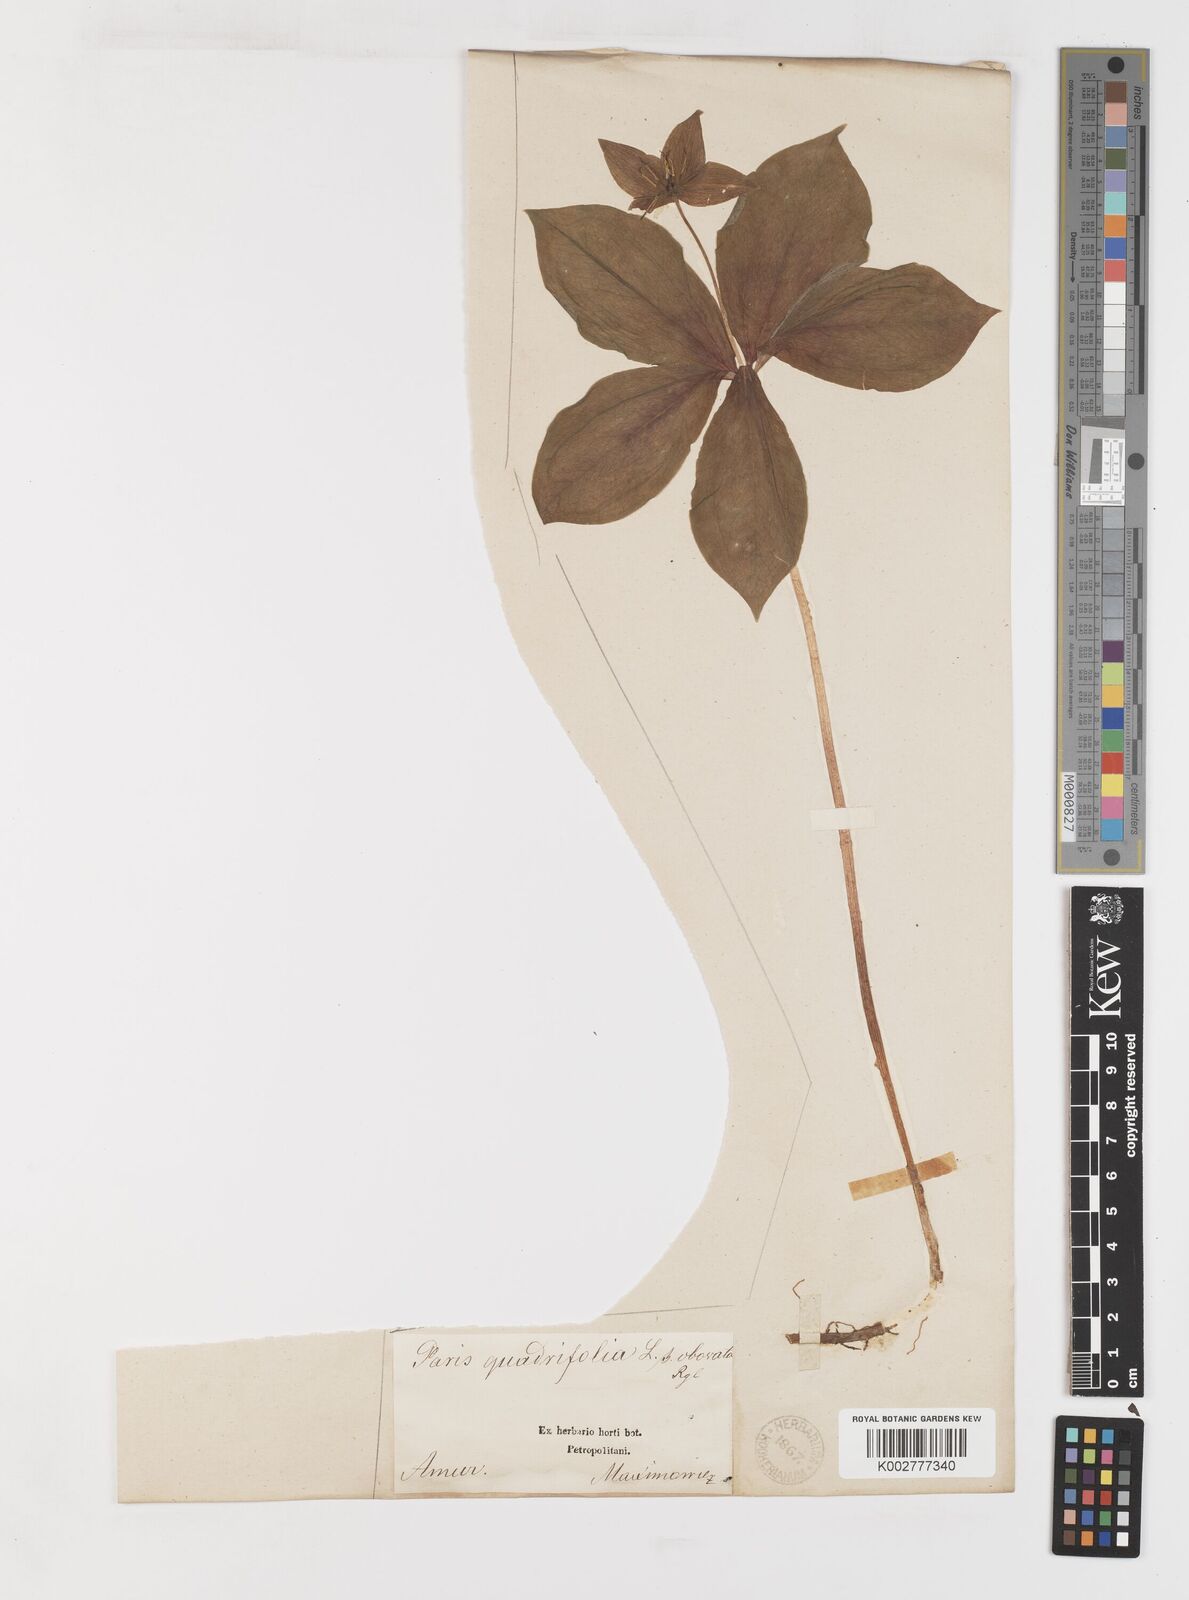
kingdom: Plantae
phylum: Tracheophyta
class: Liliopsida
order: Liliales
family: Melanthiaceae
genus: Paris
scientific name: Paris verticillata
